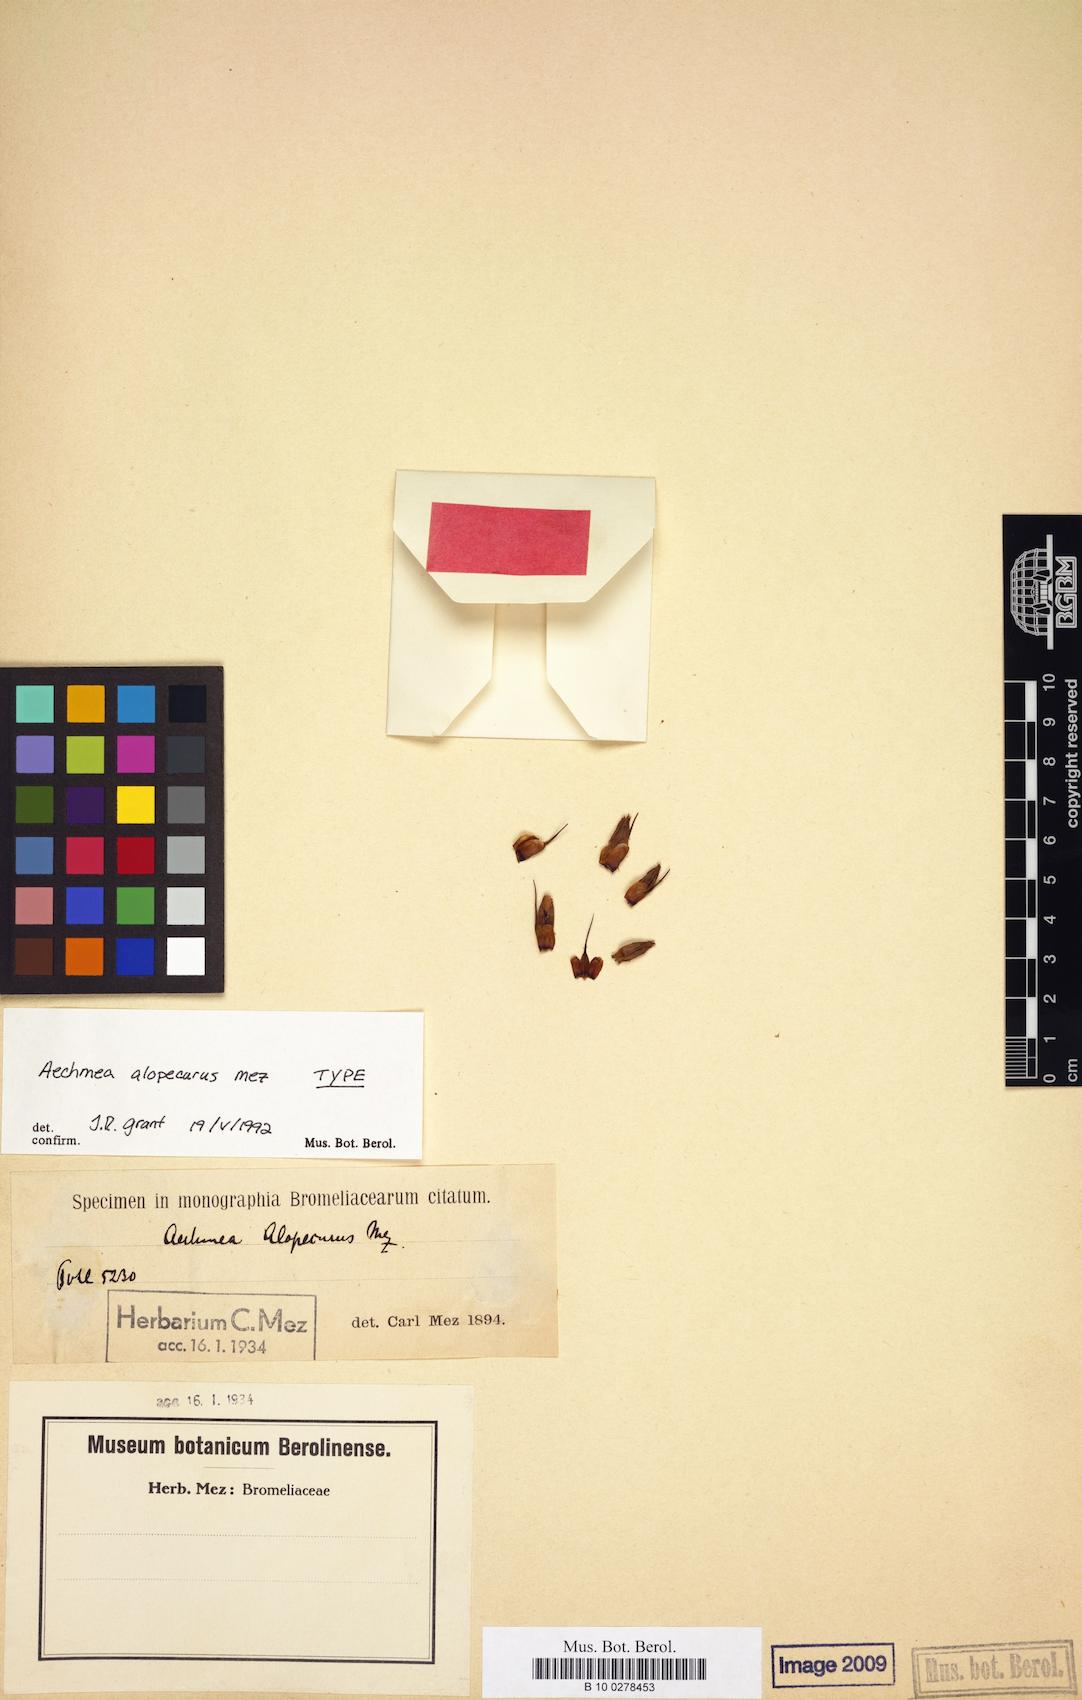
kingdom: Plantae
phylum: Tracheophyta
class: Liliopsida
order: Poales
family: Bromeliaceae
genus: Aechmea
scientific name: Aechmea alopecurus
